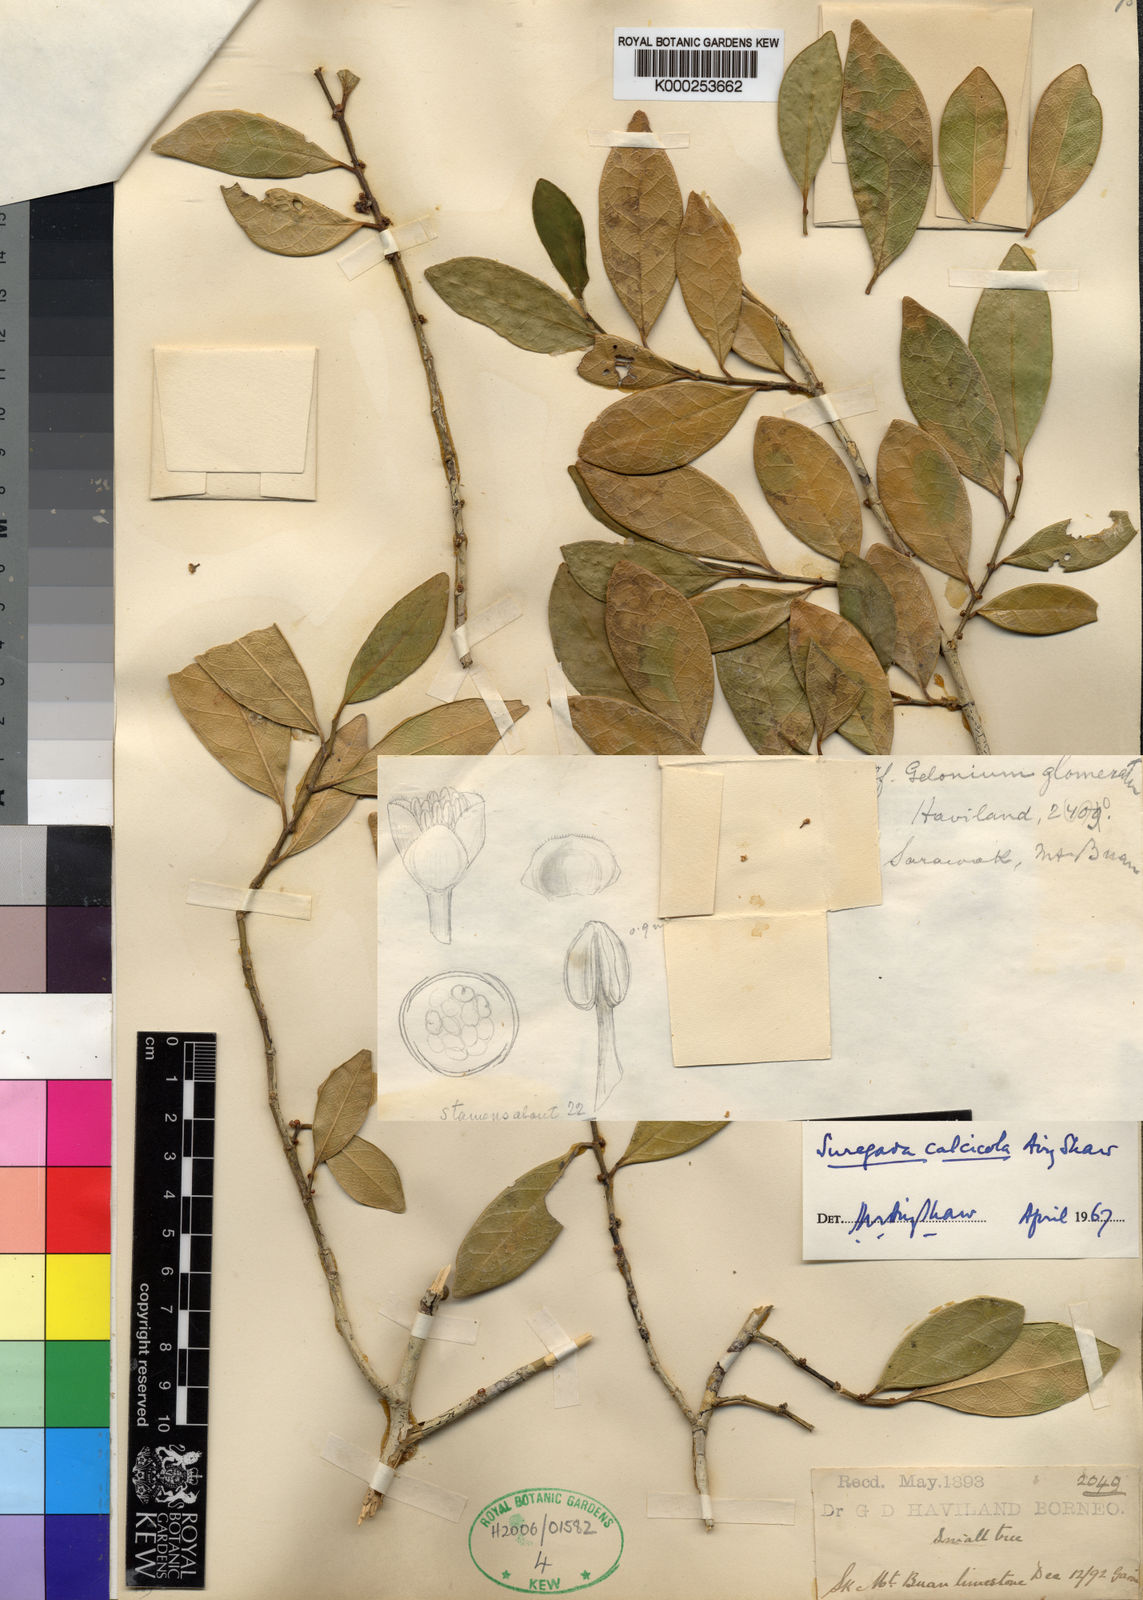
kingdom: Plantae
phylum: Tracheophyta
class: Magnoliopsida
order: Malpighiales
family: Euphorbiaceae
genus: Suregada
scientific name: Suregada calcicola
